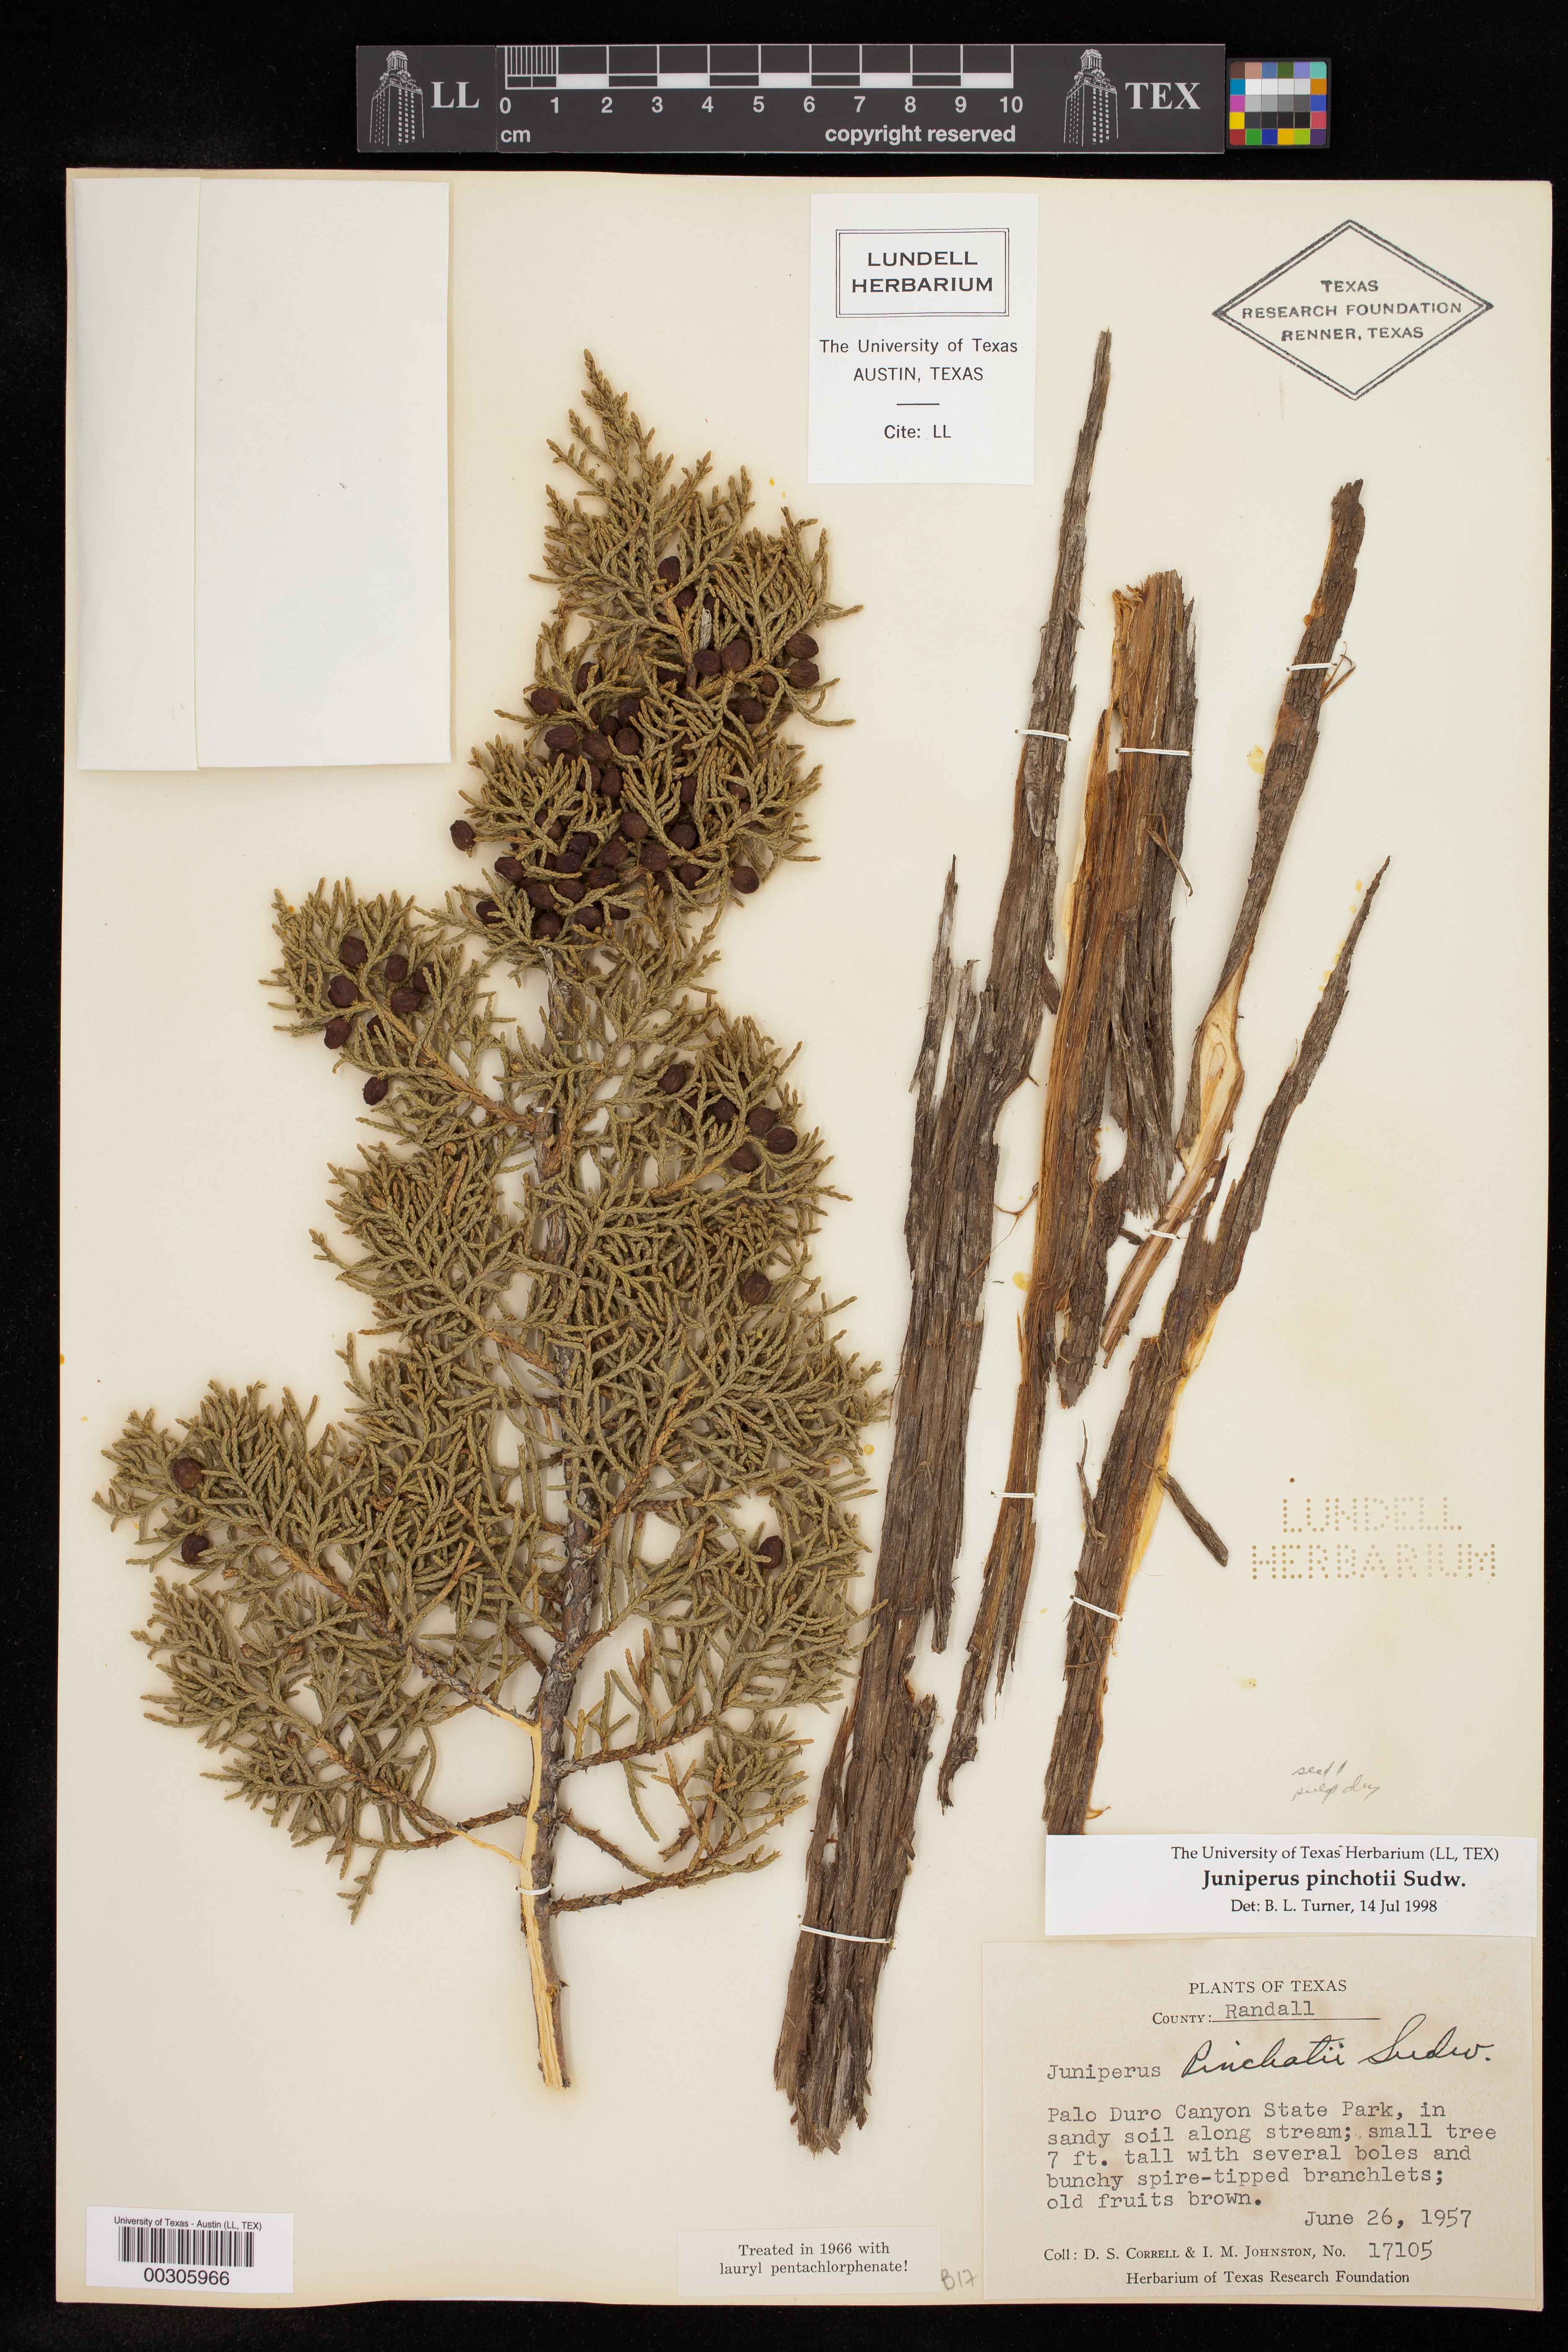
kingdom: Plantae
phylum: Tracheophyta
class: Pinopsida
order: Pinales
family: Cupressaceae
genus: Juniperus
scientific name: Juniperus pinchotii
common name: Pinchot juniper
